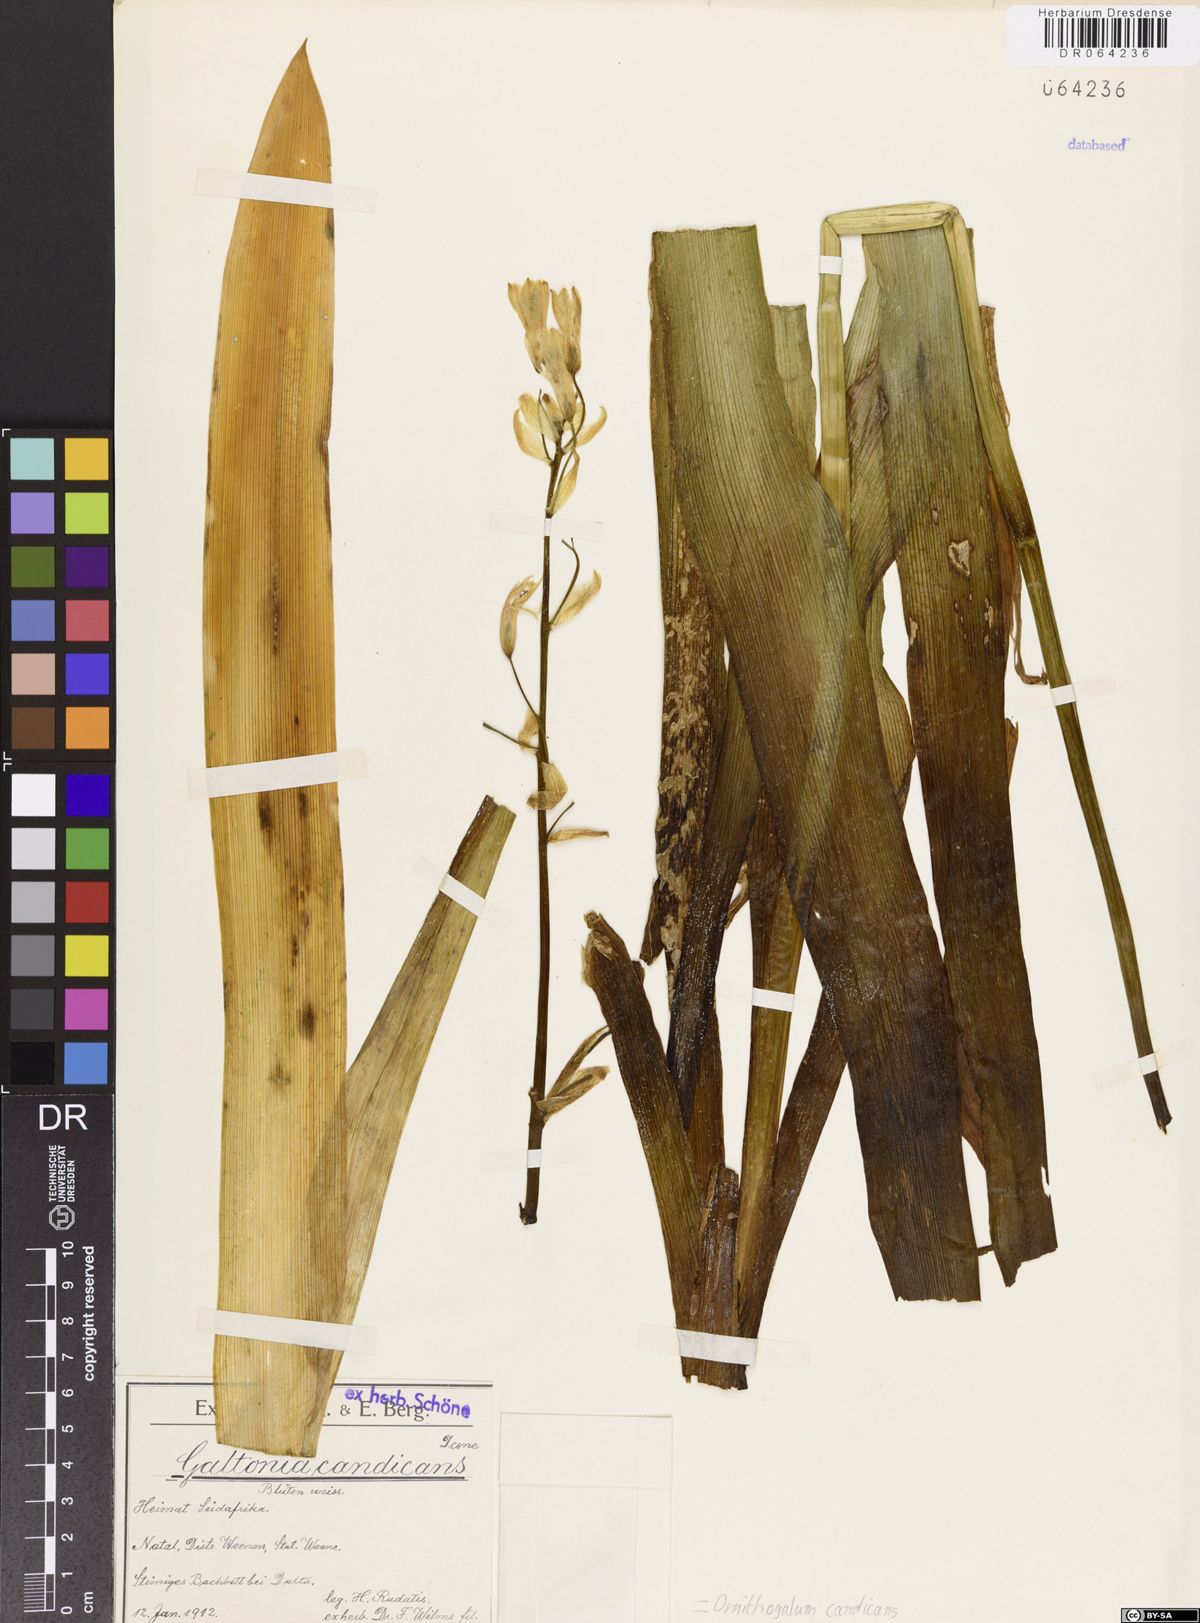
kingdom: Plantae
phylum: Tracheophyta
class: Liliopsida
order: Asparagales
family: Asparagaceae
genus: Ornithogalum
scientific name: Ornithogalum candicans
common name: Summer-hyacinth
